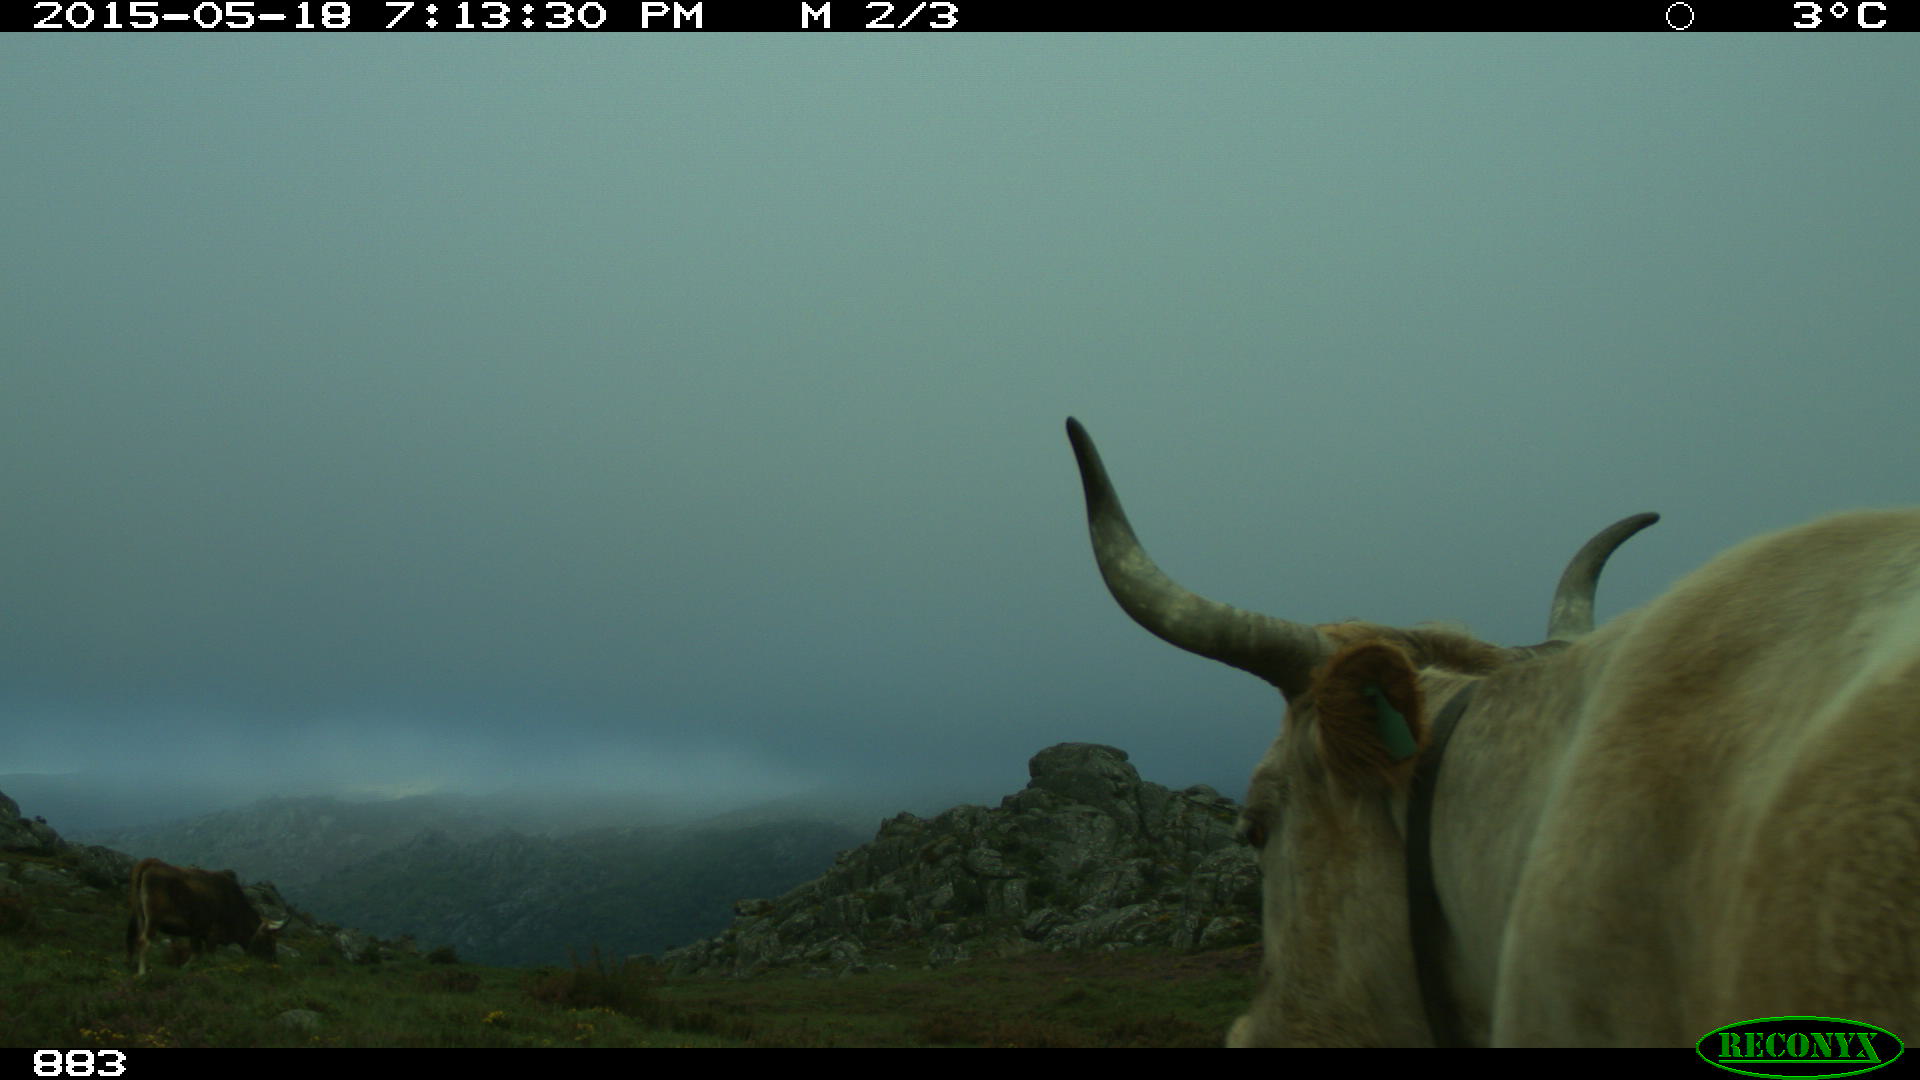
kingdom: Animalia
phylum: Chordata
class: Mammalia
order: Artiodactyla
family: Bovidae
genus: Bos
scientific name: Bos taurus
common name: Domesticated cattle
